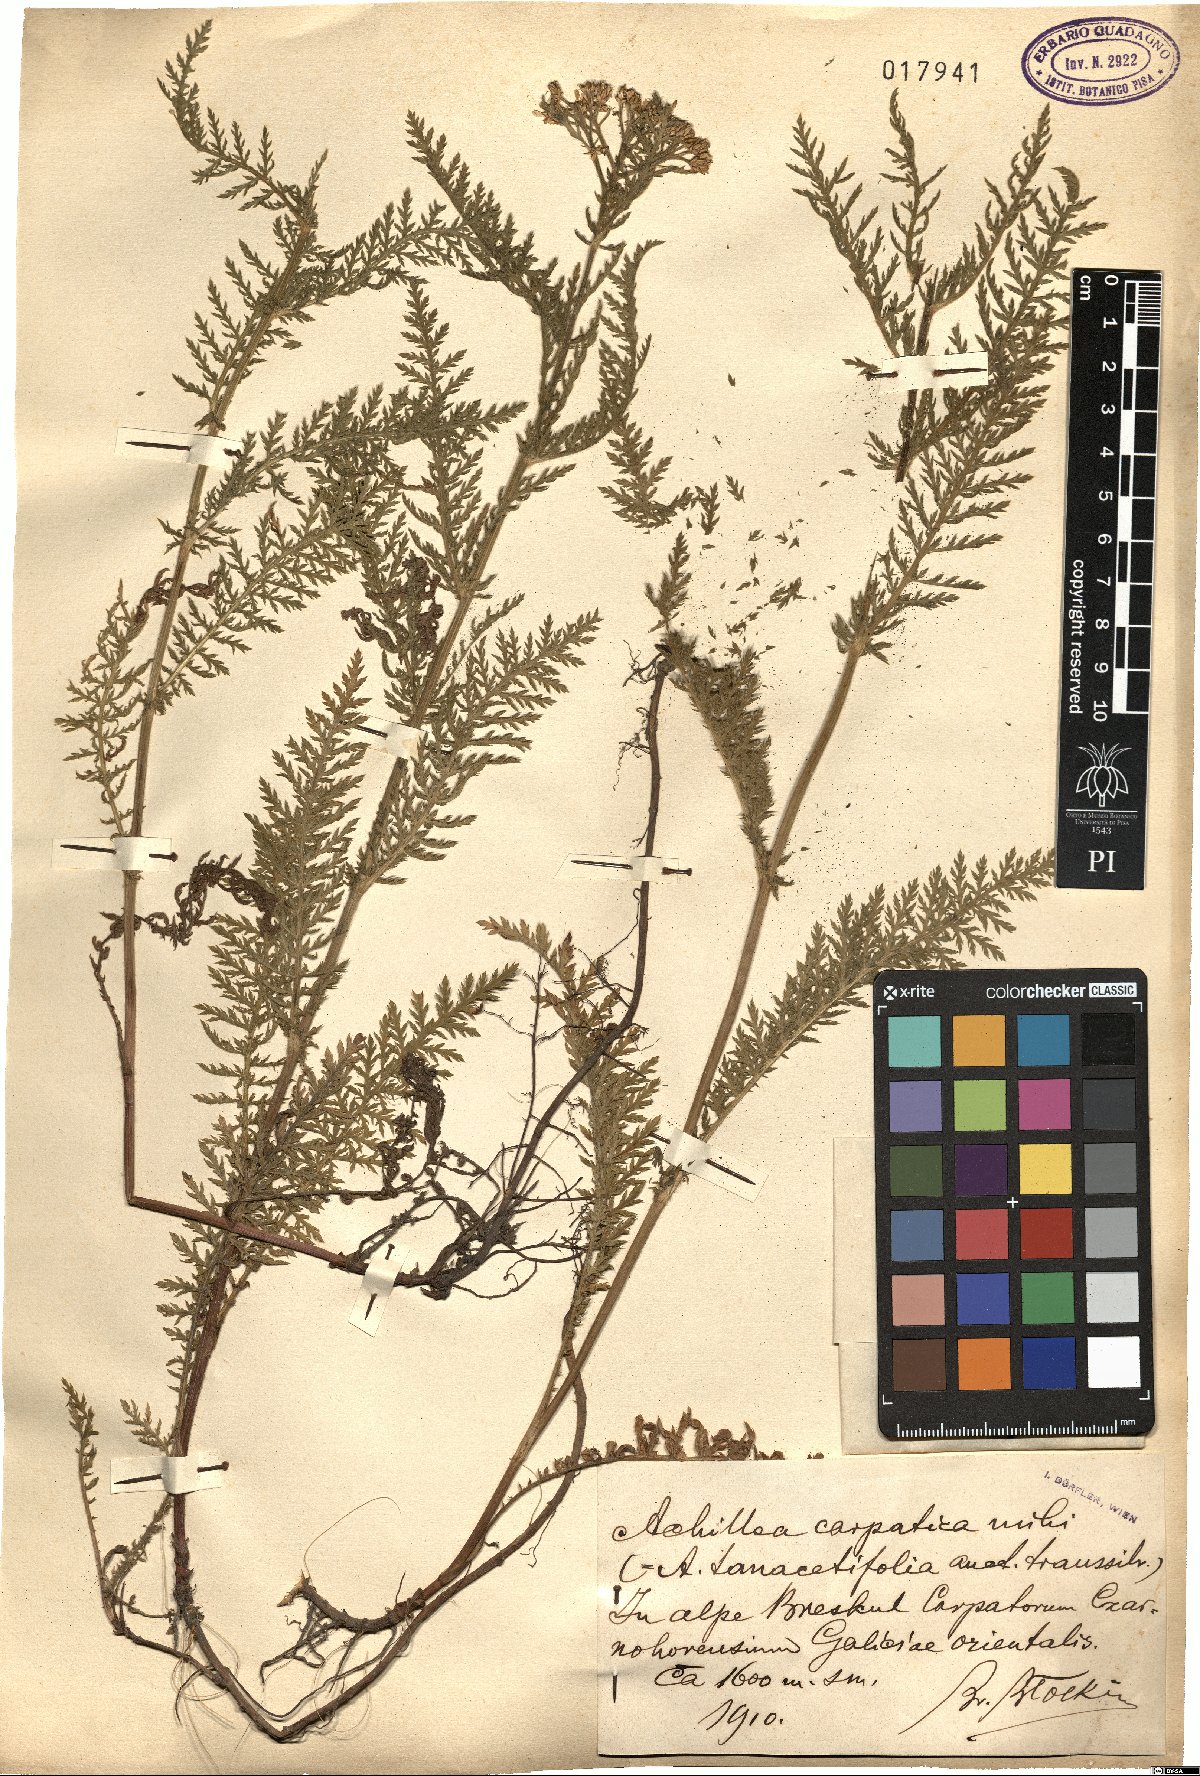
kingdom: Plantae
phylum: Tracheophyta
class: Magnoliopsida
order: Asterales
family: Asteraceae
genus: Achillea
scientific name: Achillea carpatica
